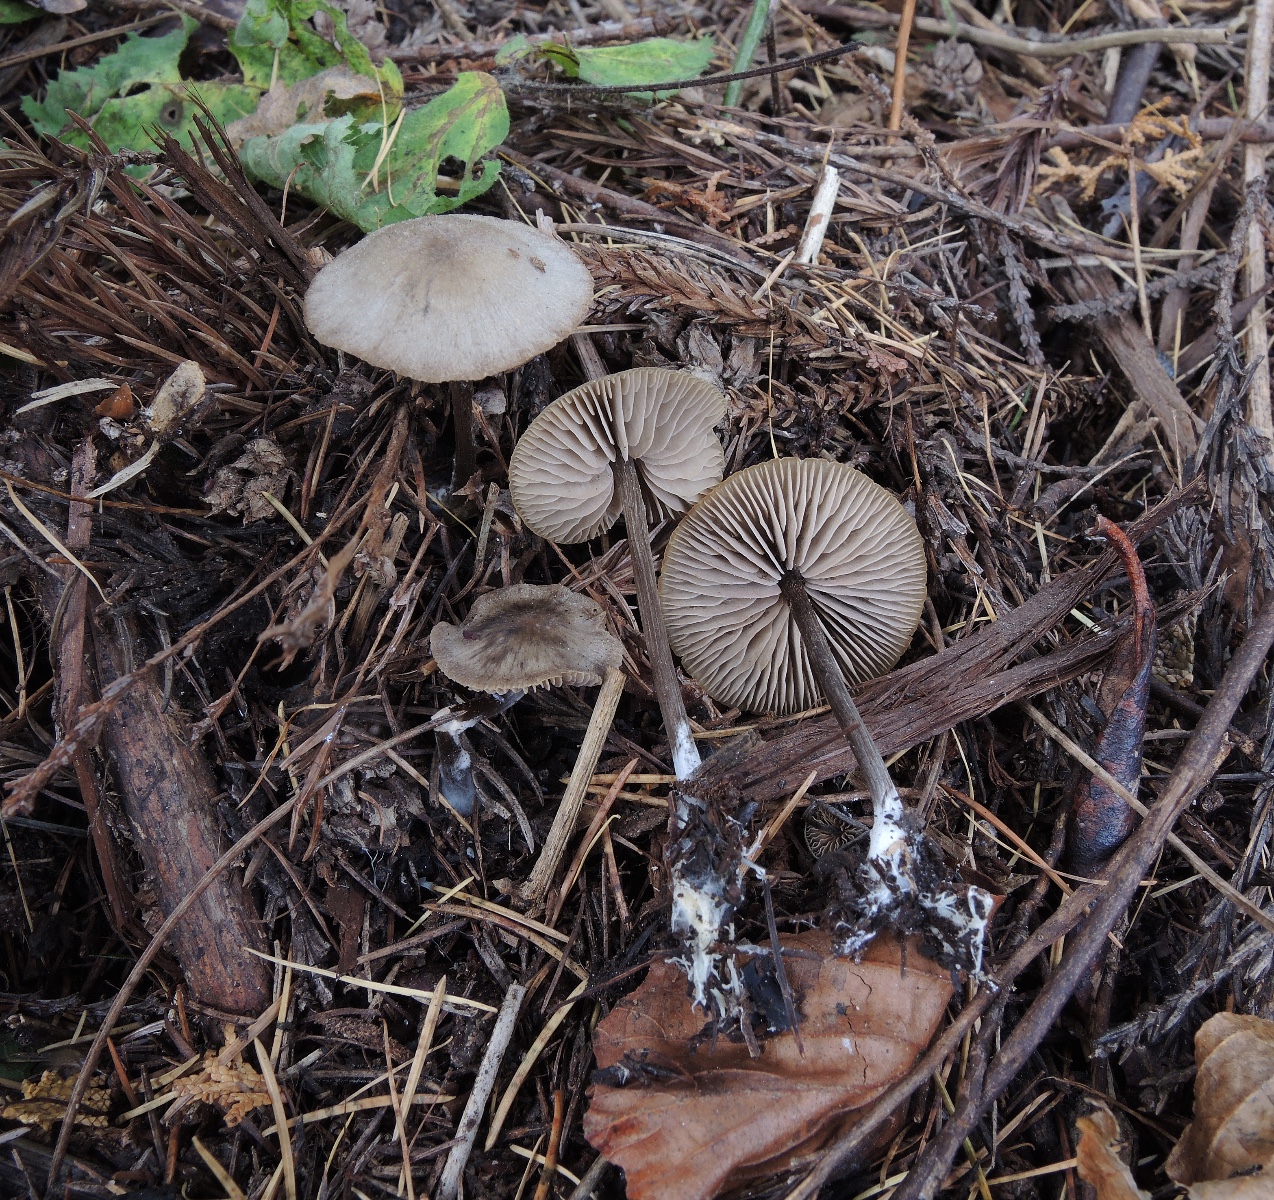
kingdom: Fungi
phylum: Basidiomycota
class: Agaricomycetes
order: Agaricales
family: Entolomataceae
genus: Entoloma
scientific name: Entoloma
